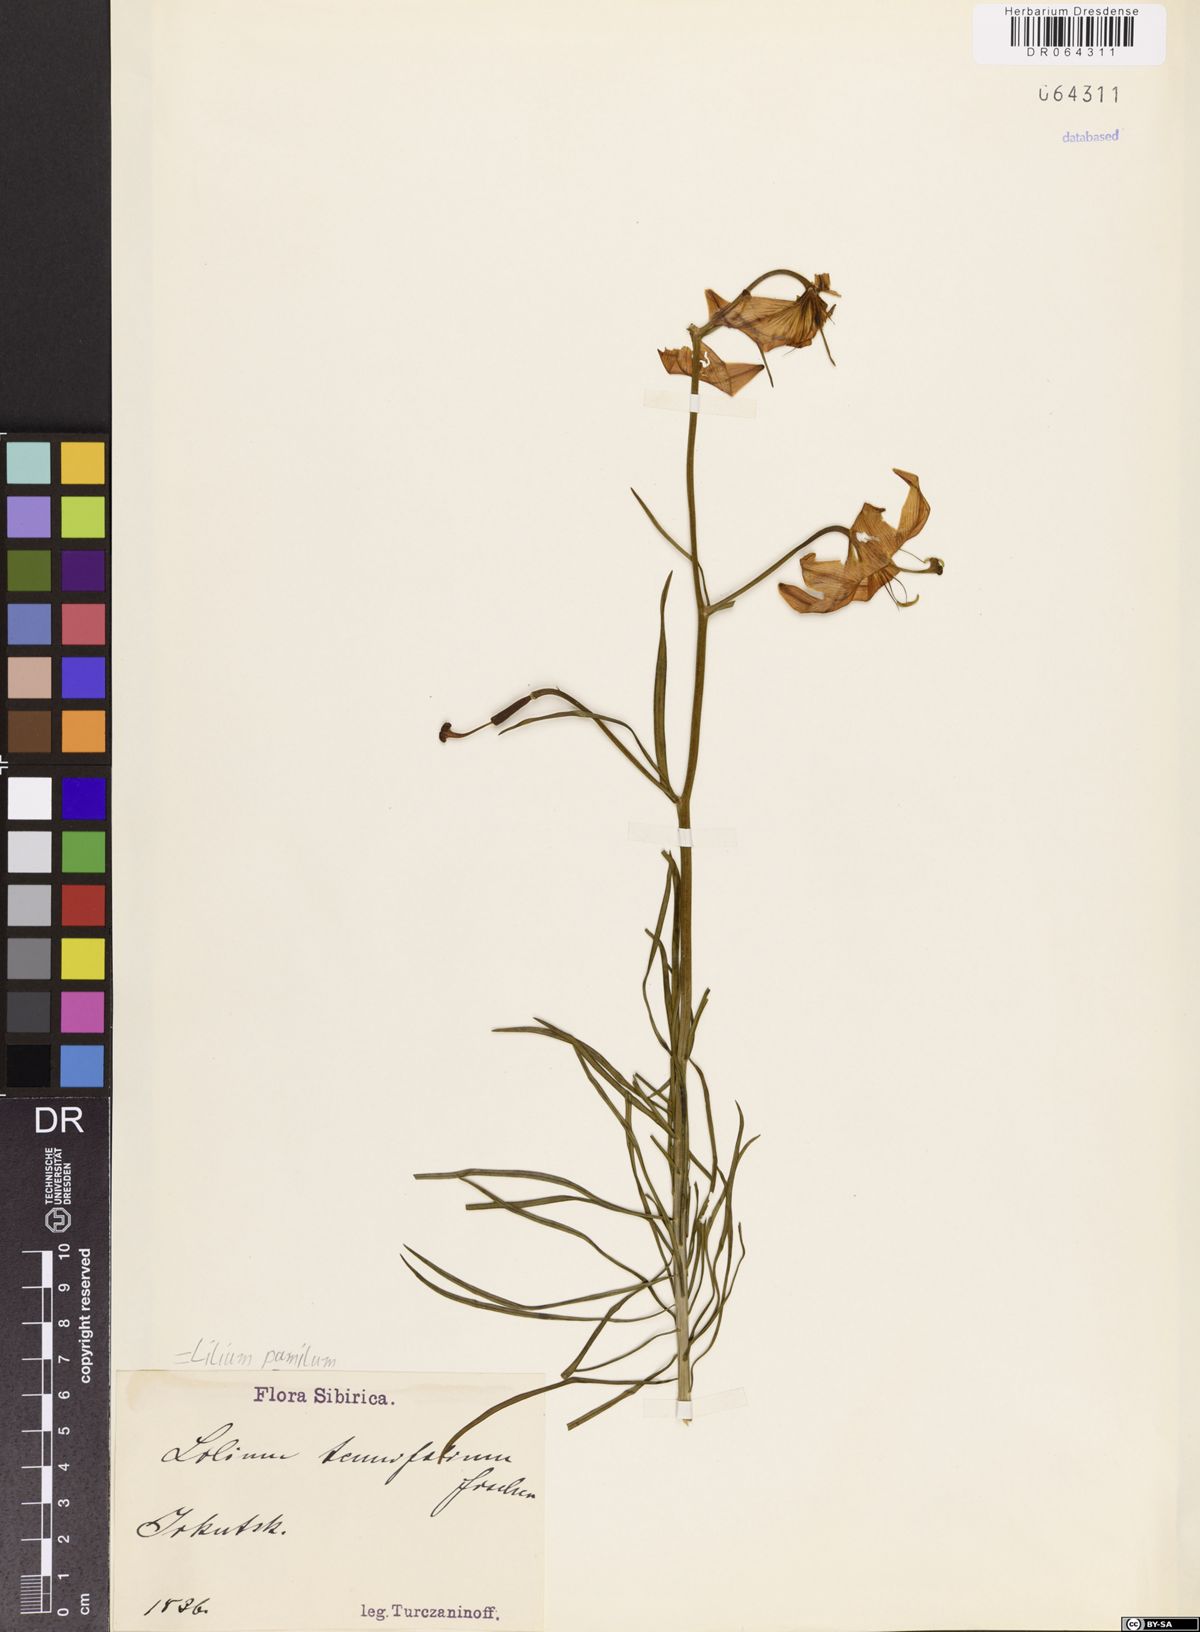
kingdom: Plantae
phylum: Tracheophyta
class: Liliopsida
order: Liliales
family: Liliaceae
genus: Lilium
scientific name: Lilium pumilum
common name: Coral lily
